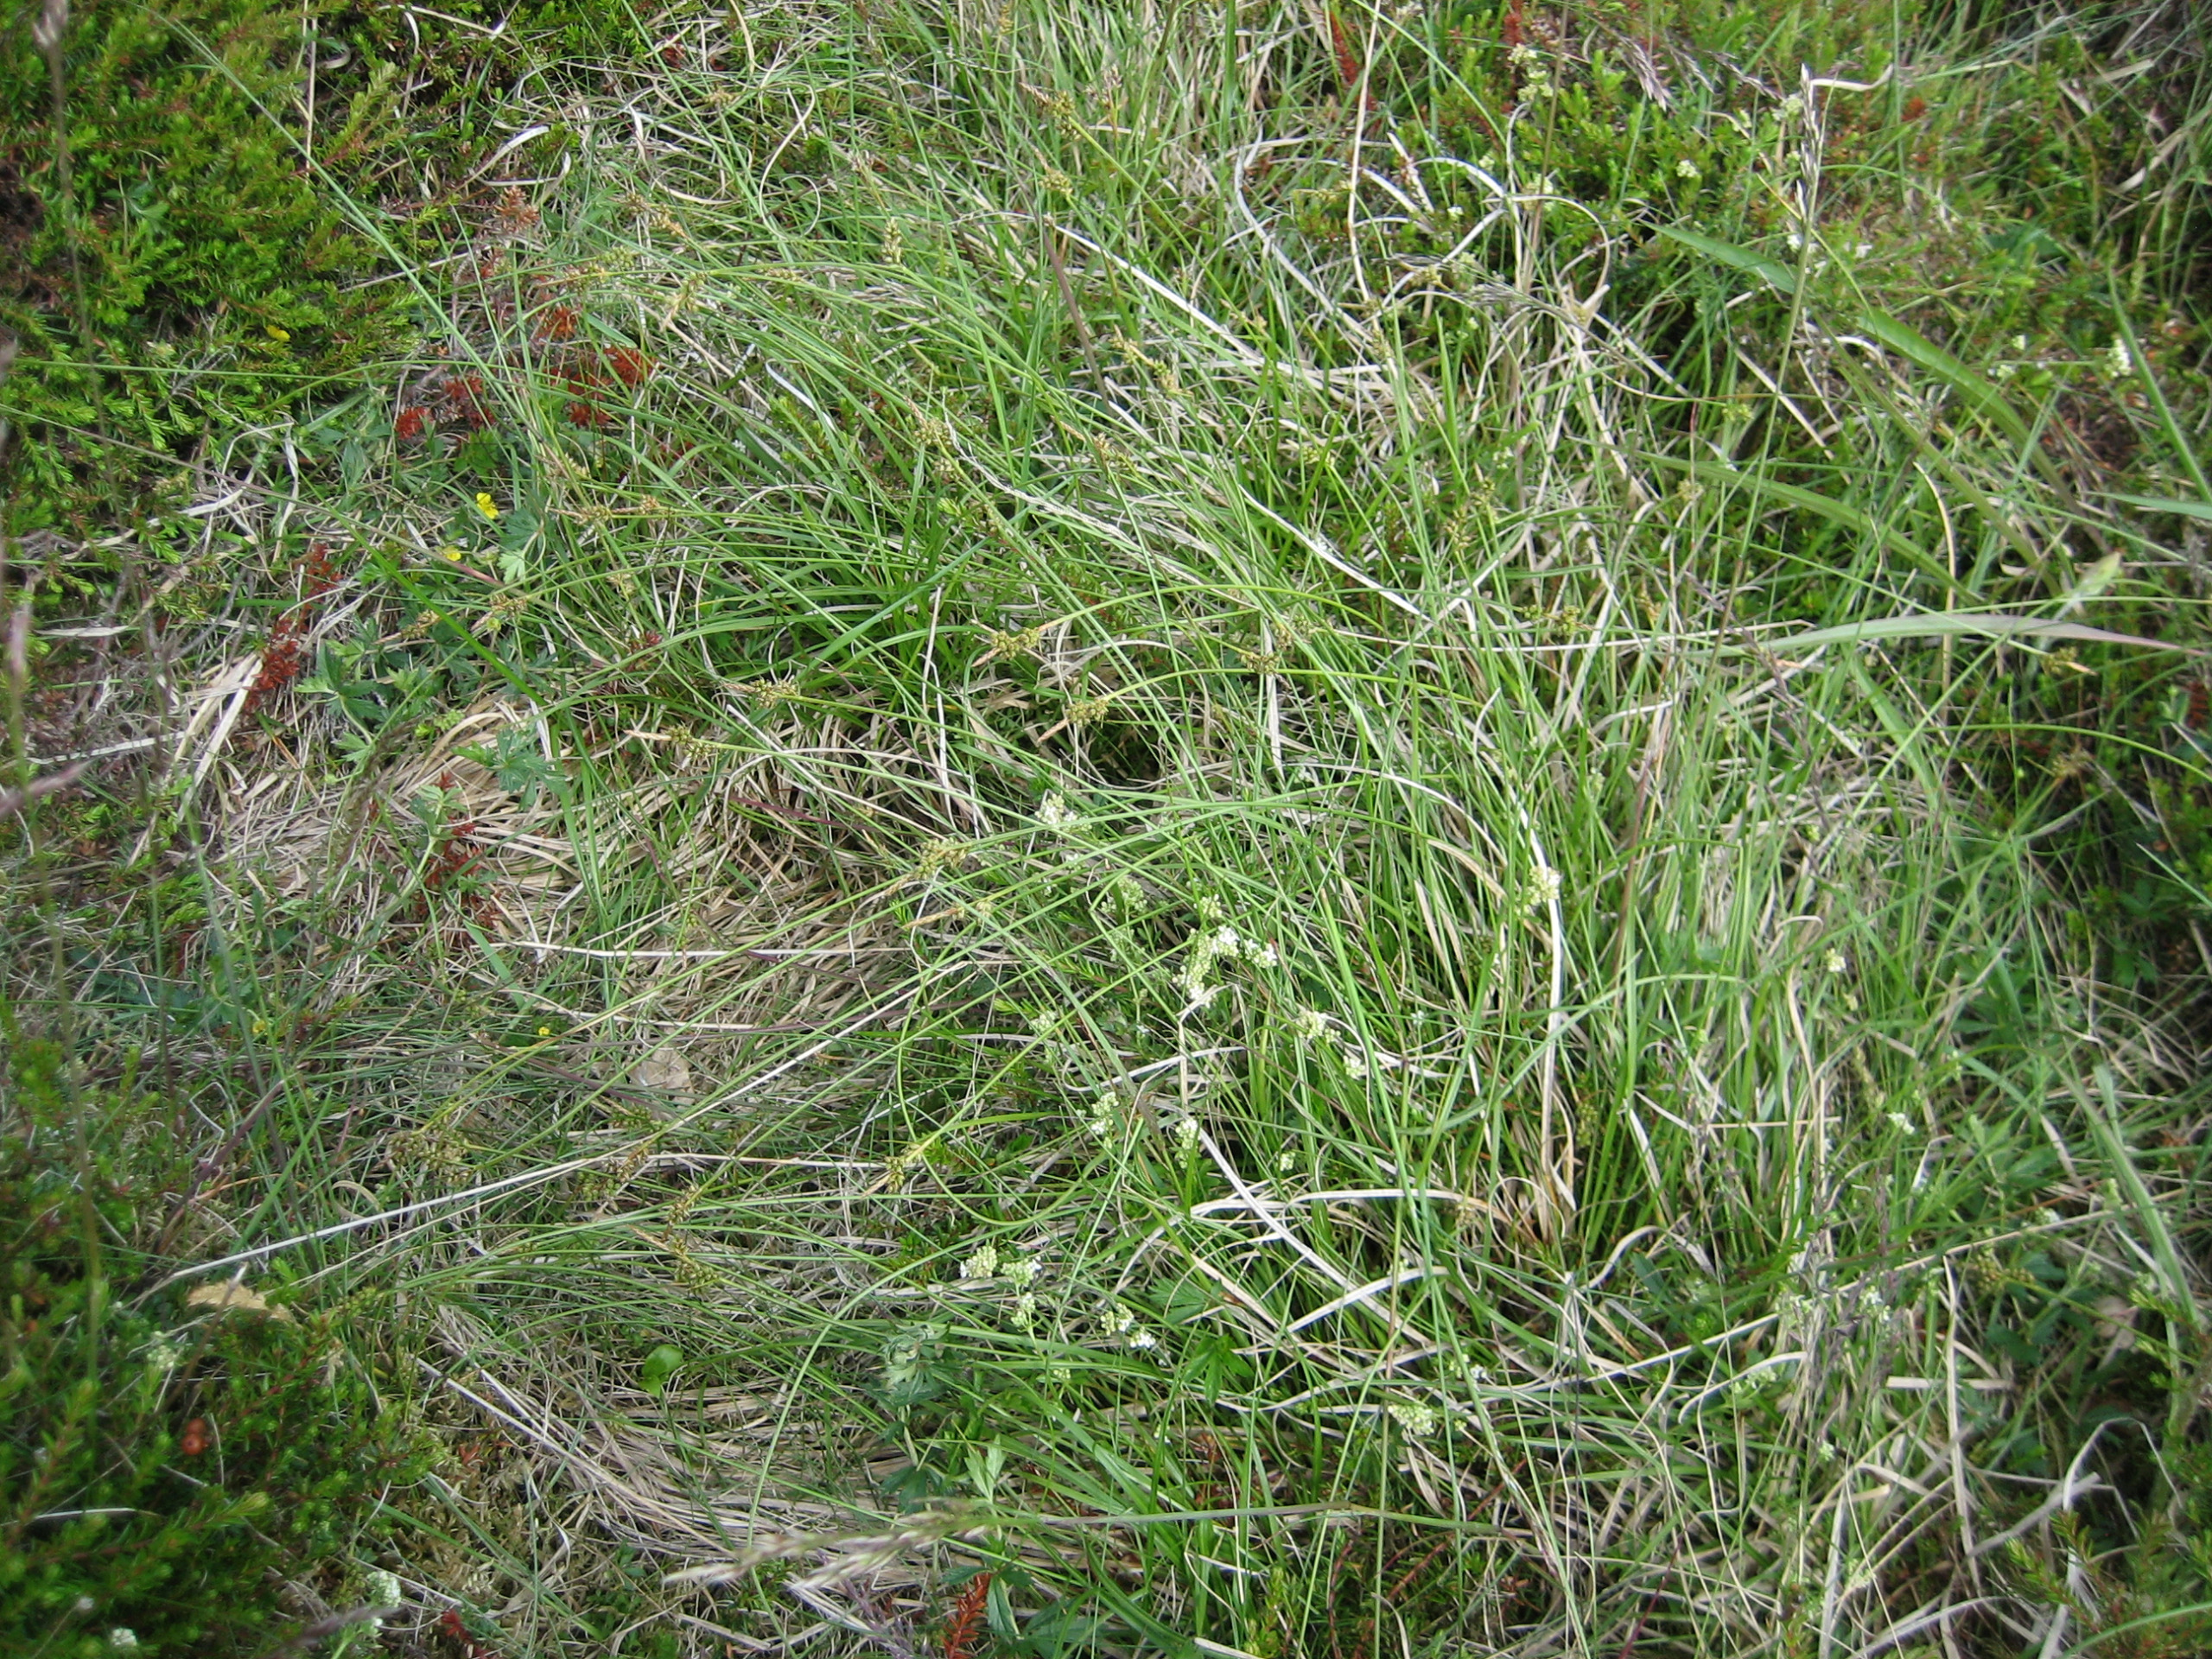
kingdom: Plantae
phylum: Tracheophyta
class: Liliopsida
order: Poales
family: Cyperaceae
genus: Carex
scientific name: Carex pilulifera
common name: Pille-star
